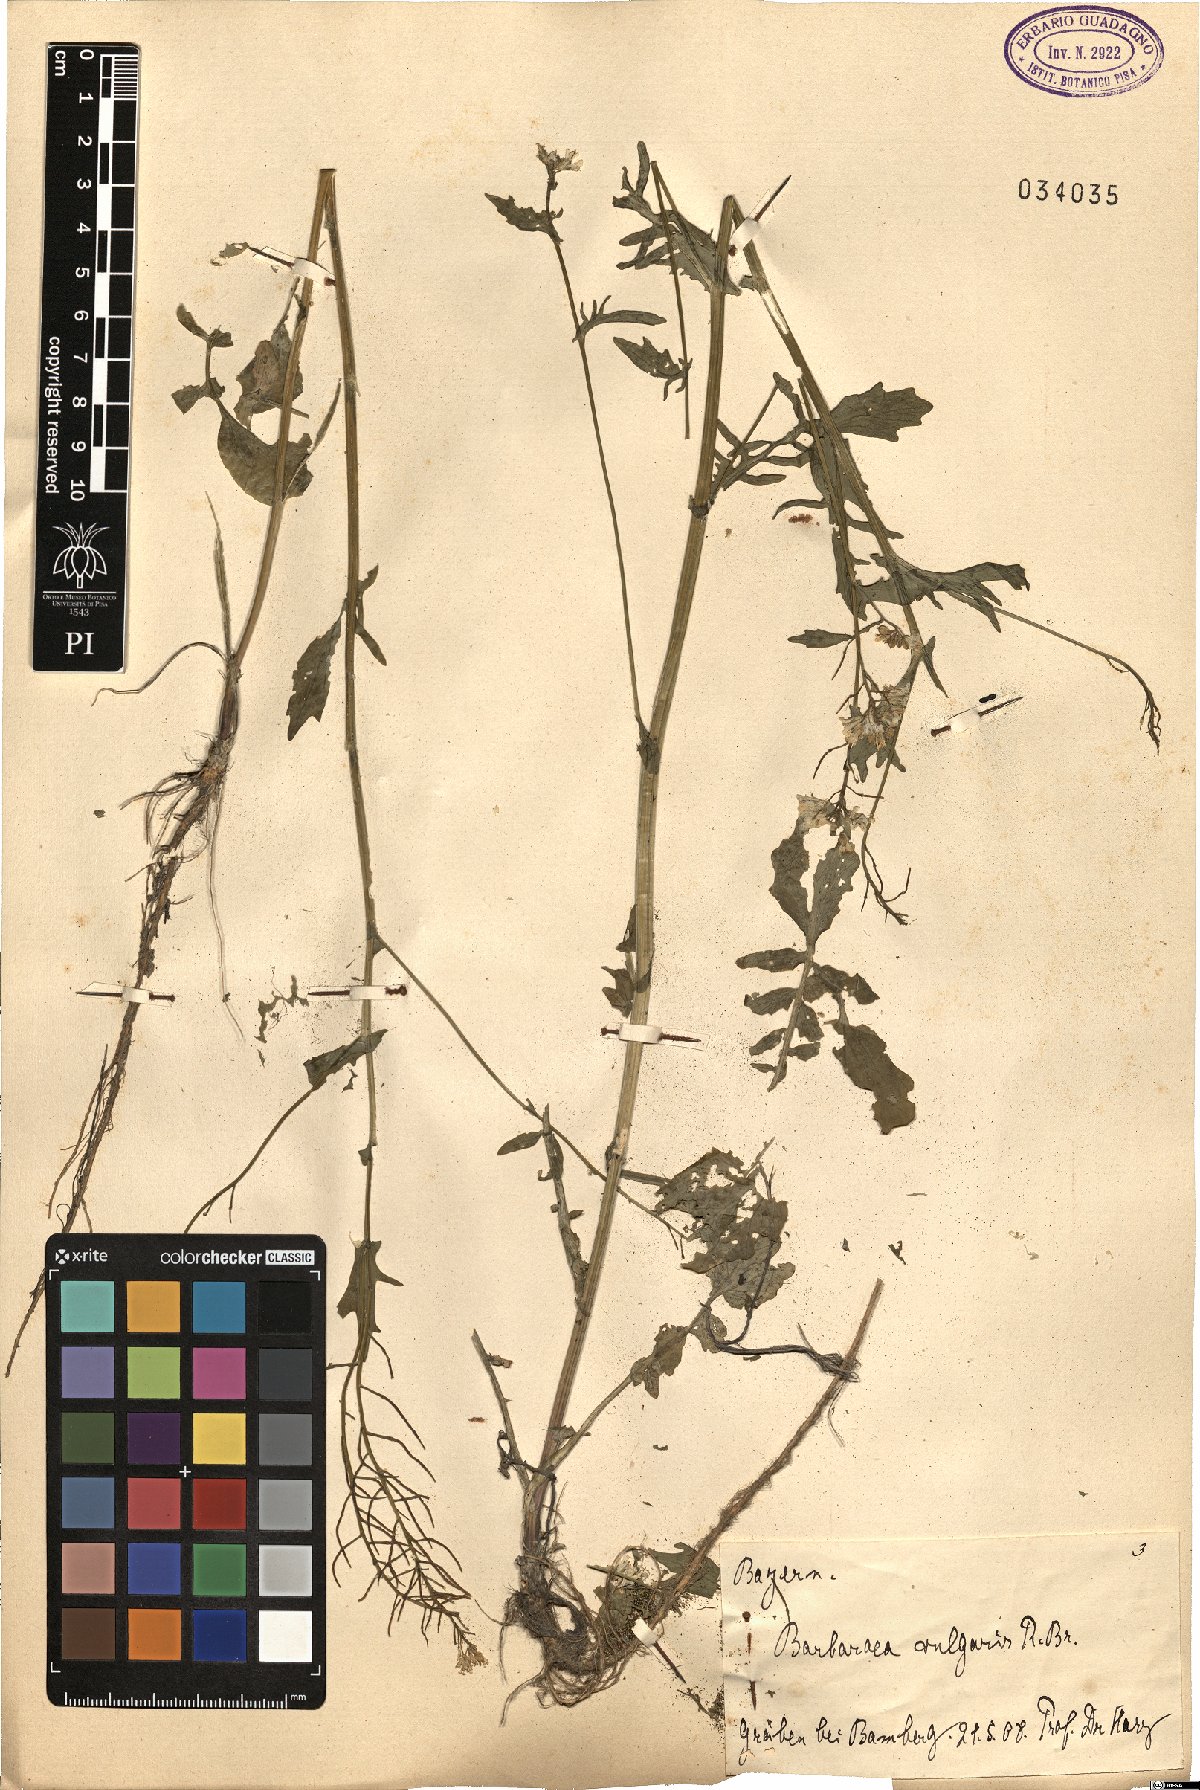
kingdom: Plantae
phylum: Tracheophyta
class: Magnoliopsida
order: Brassicales
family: Brassicaceae
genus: Barbarea
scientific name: Barbarea vulgaris
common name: Cressy-greens
